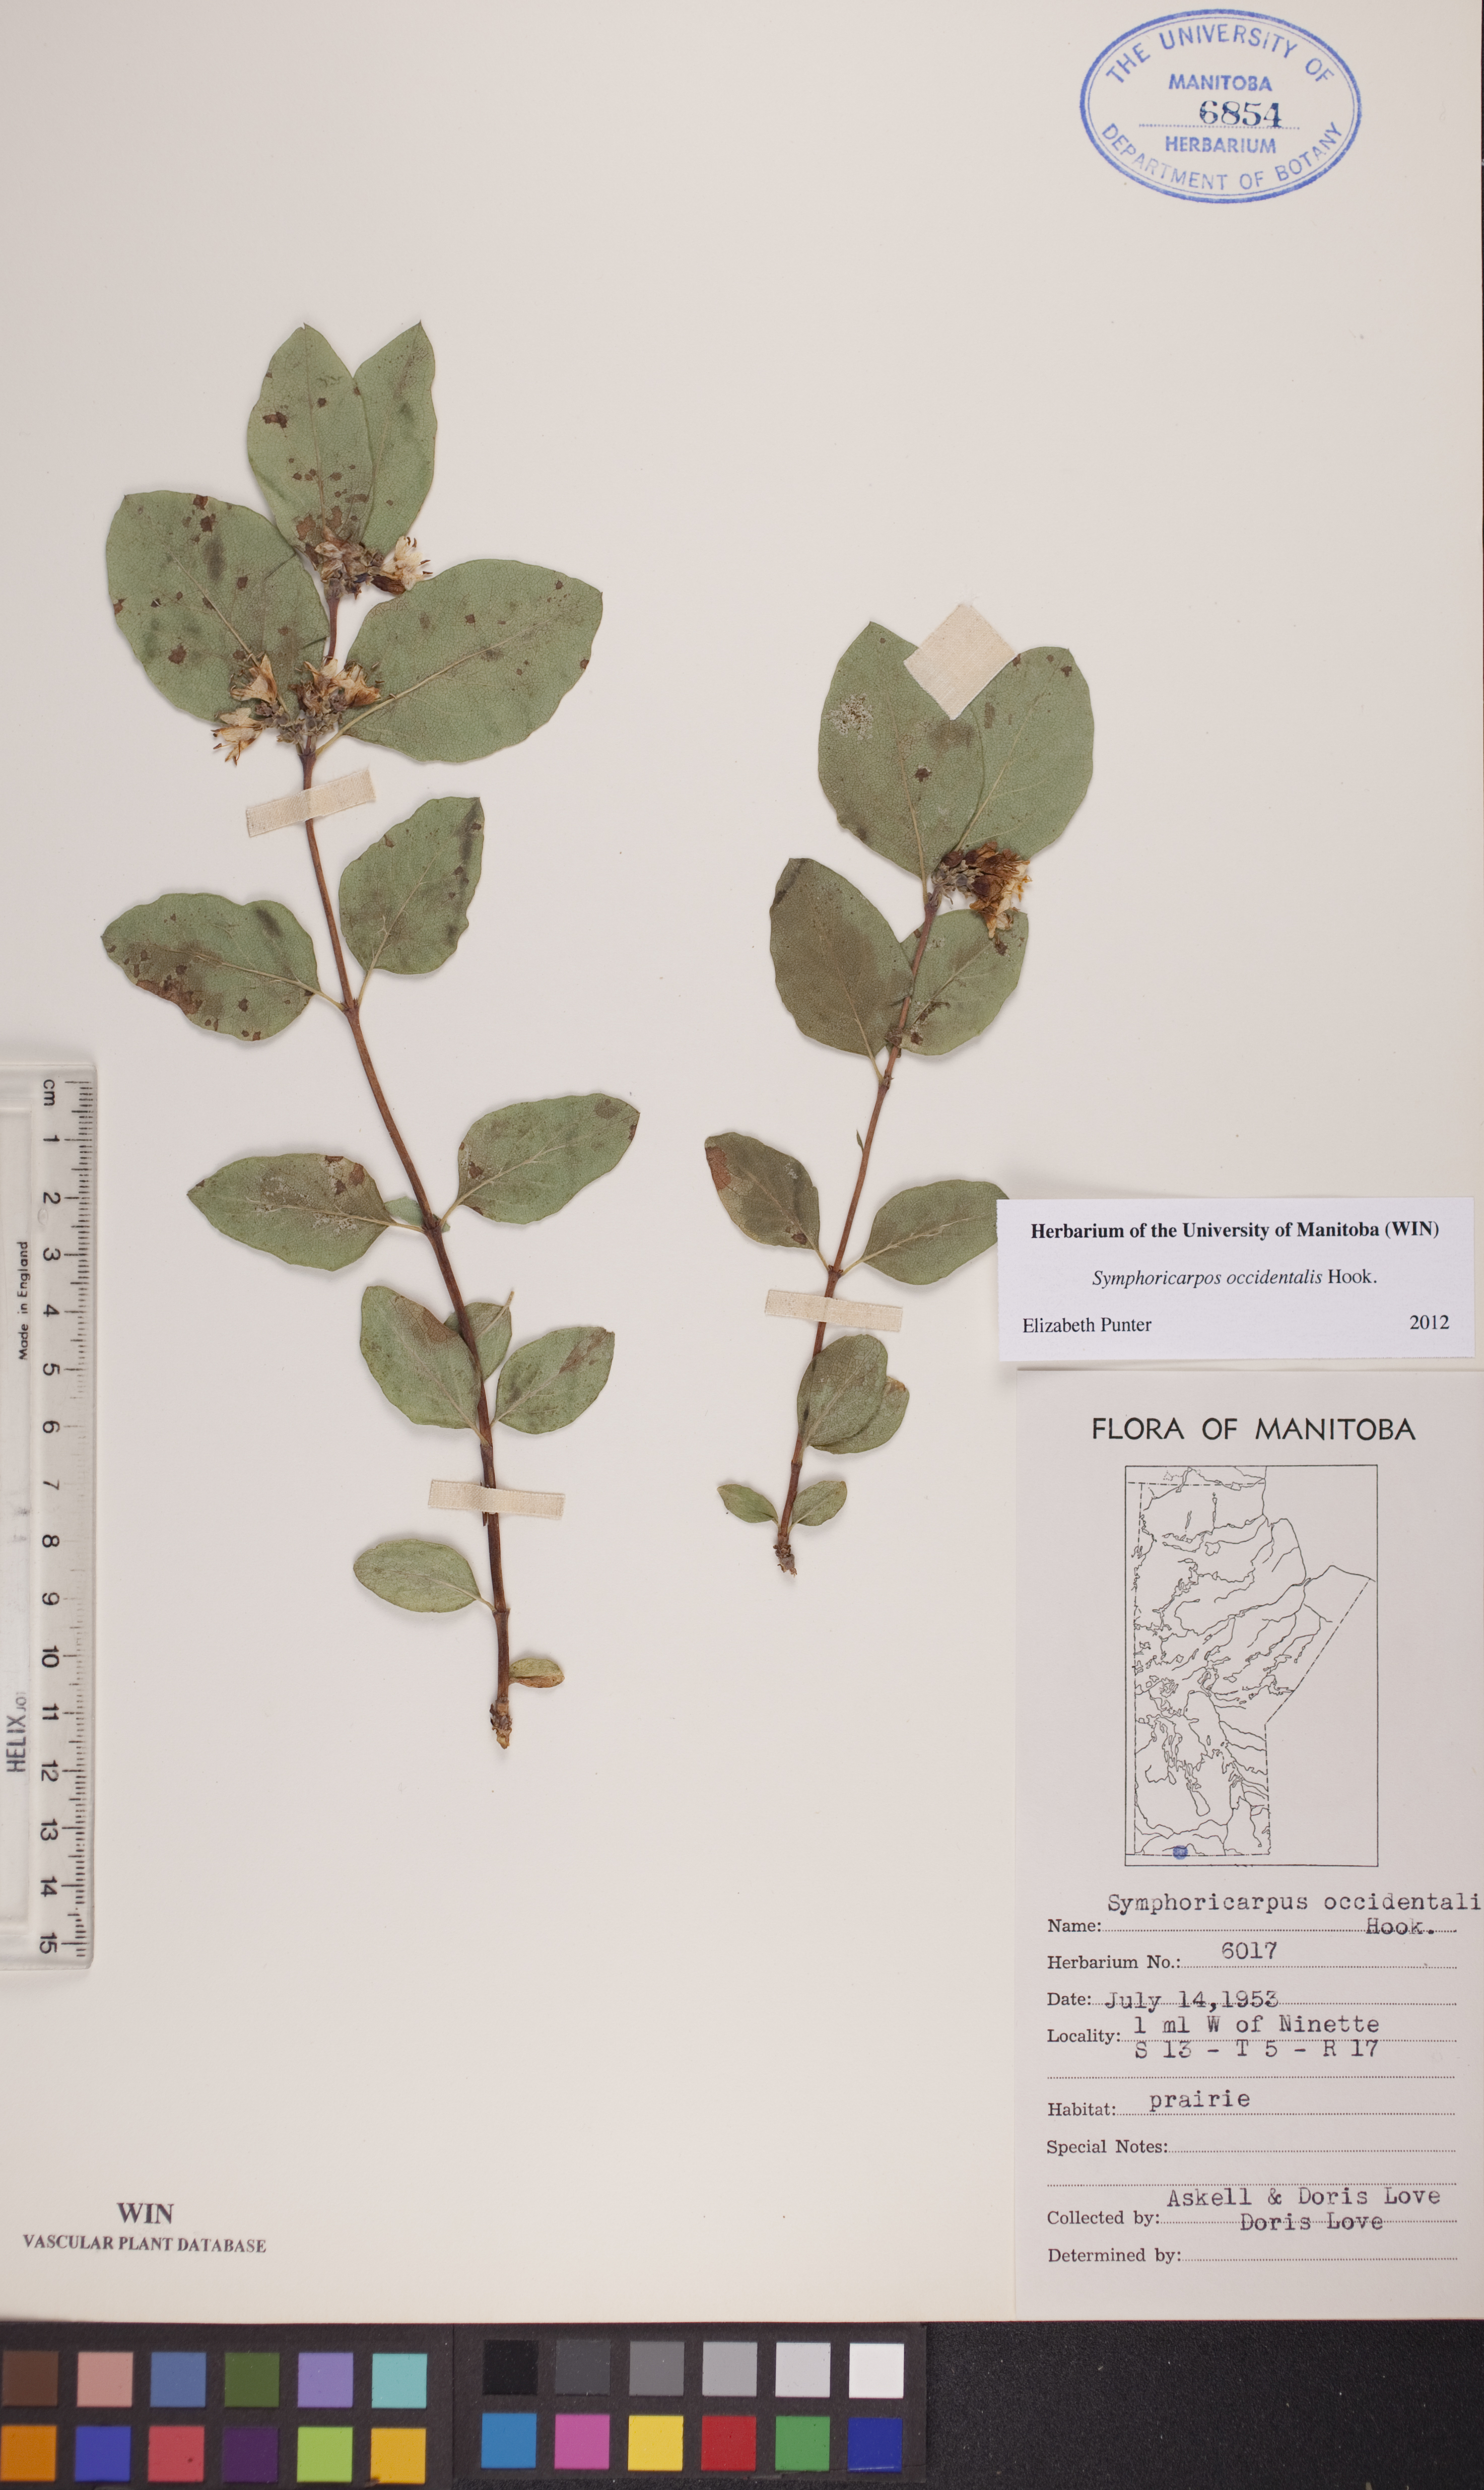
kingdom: Plantae
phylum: Tracheophyta
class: Magnoliopsida
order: Dipsacales
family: Caprifoliaceae
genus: Symphoricarpos
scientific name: Symphoricarpos occidentalis
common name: Wolfberry
